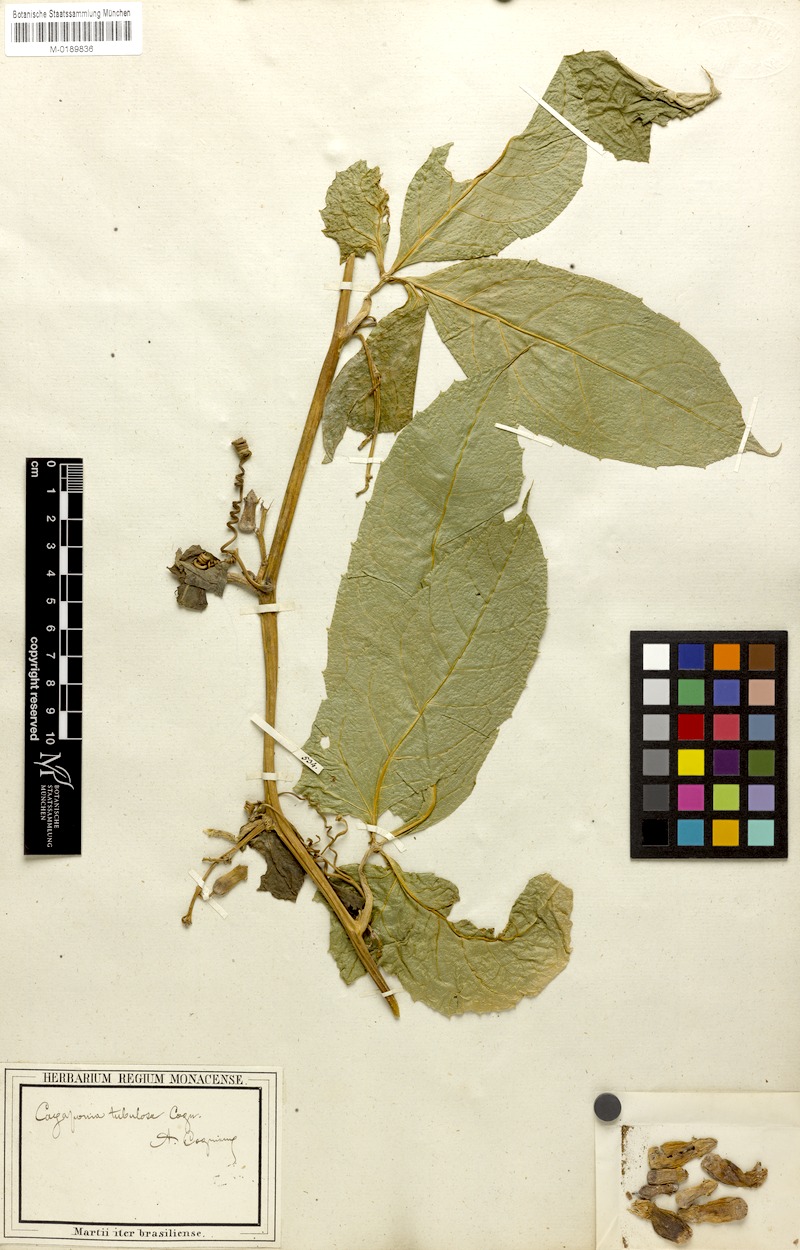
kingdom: Plantae
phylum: Tracheophyta
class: Magnoliopsida
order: Cucurbitales
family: Cucurbitaceae
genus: Cayaponia
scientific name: Cayaponia tubulosa
